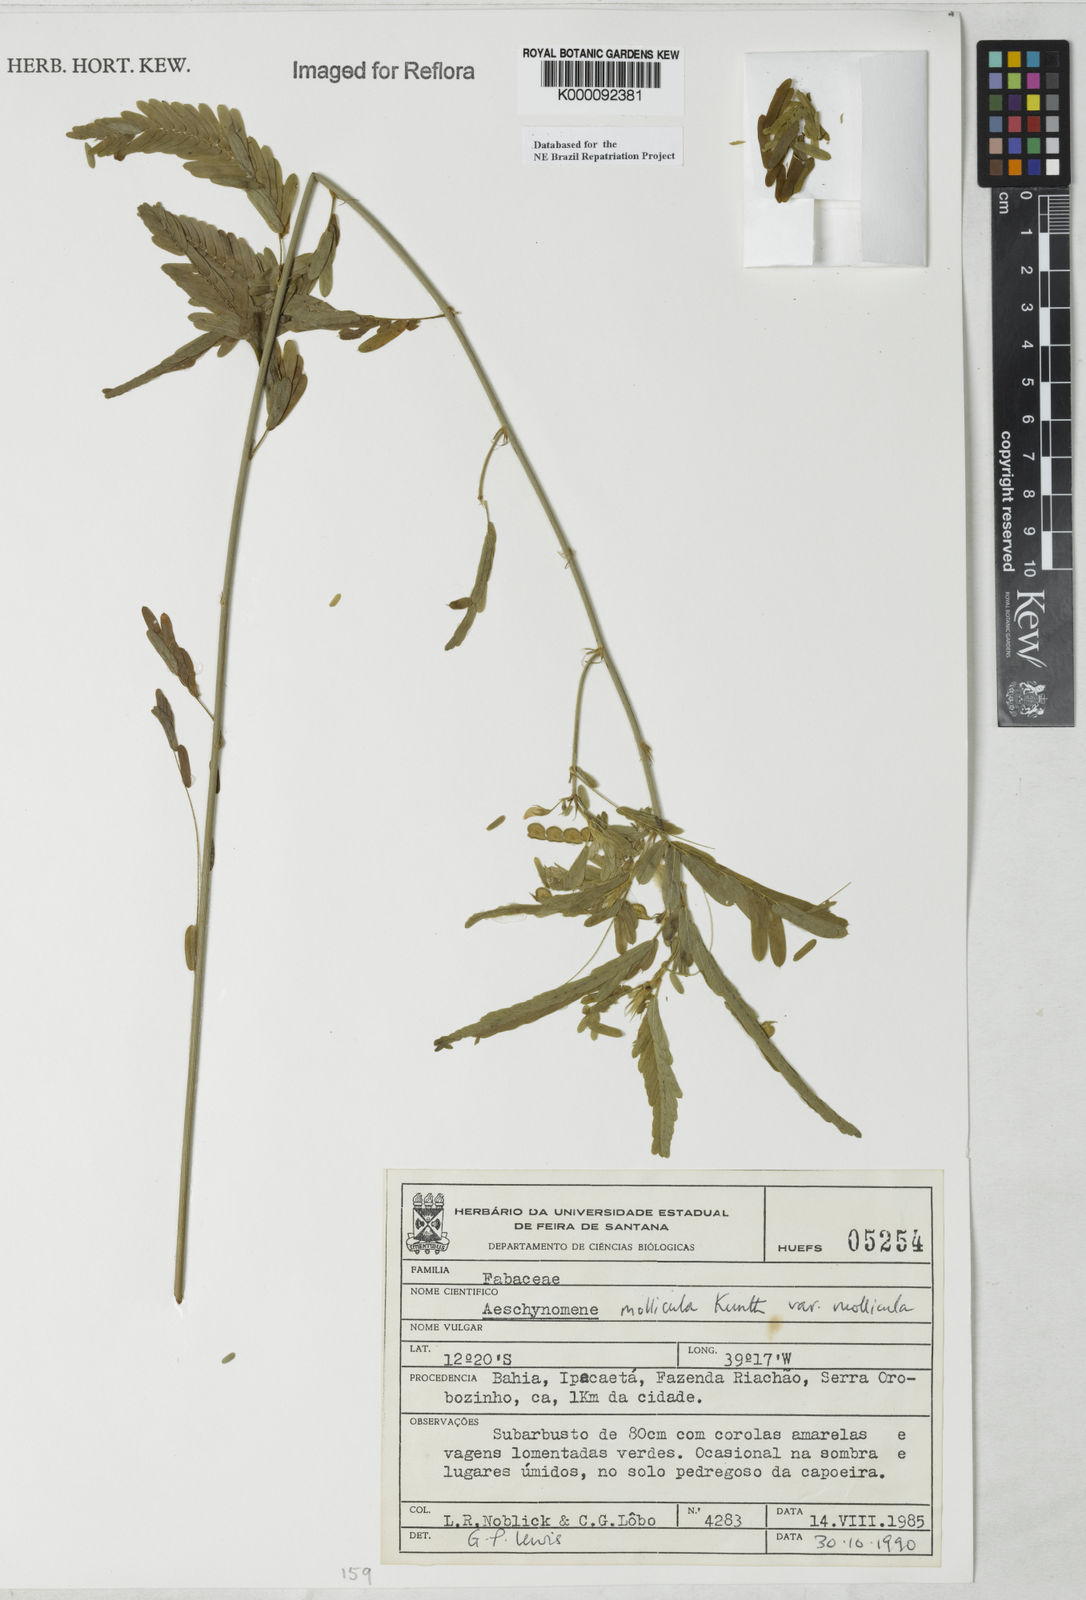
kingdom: Plantae
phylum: Tracheophyta
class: Magnoliopsida
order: Fabales
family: Fabaceae
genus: Ctenodon
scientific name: Ctenodon molliculus
